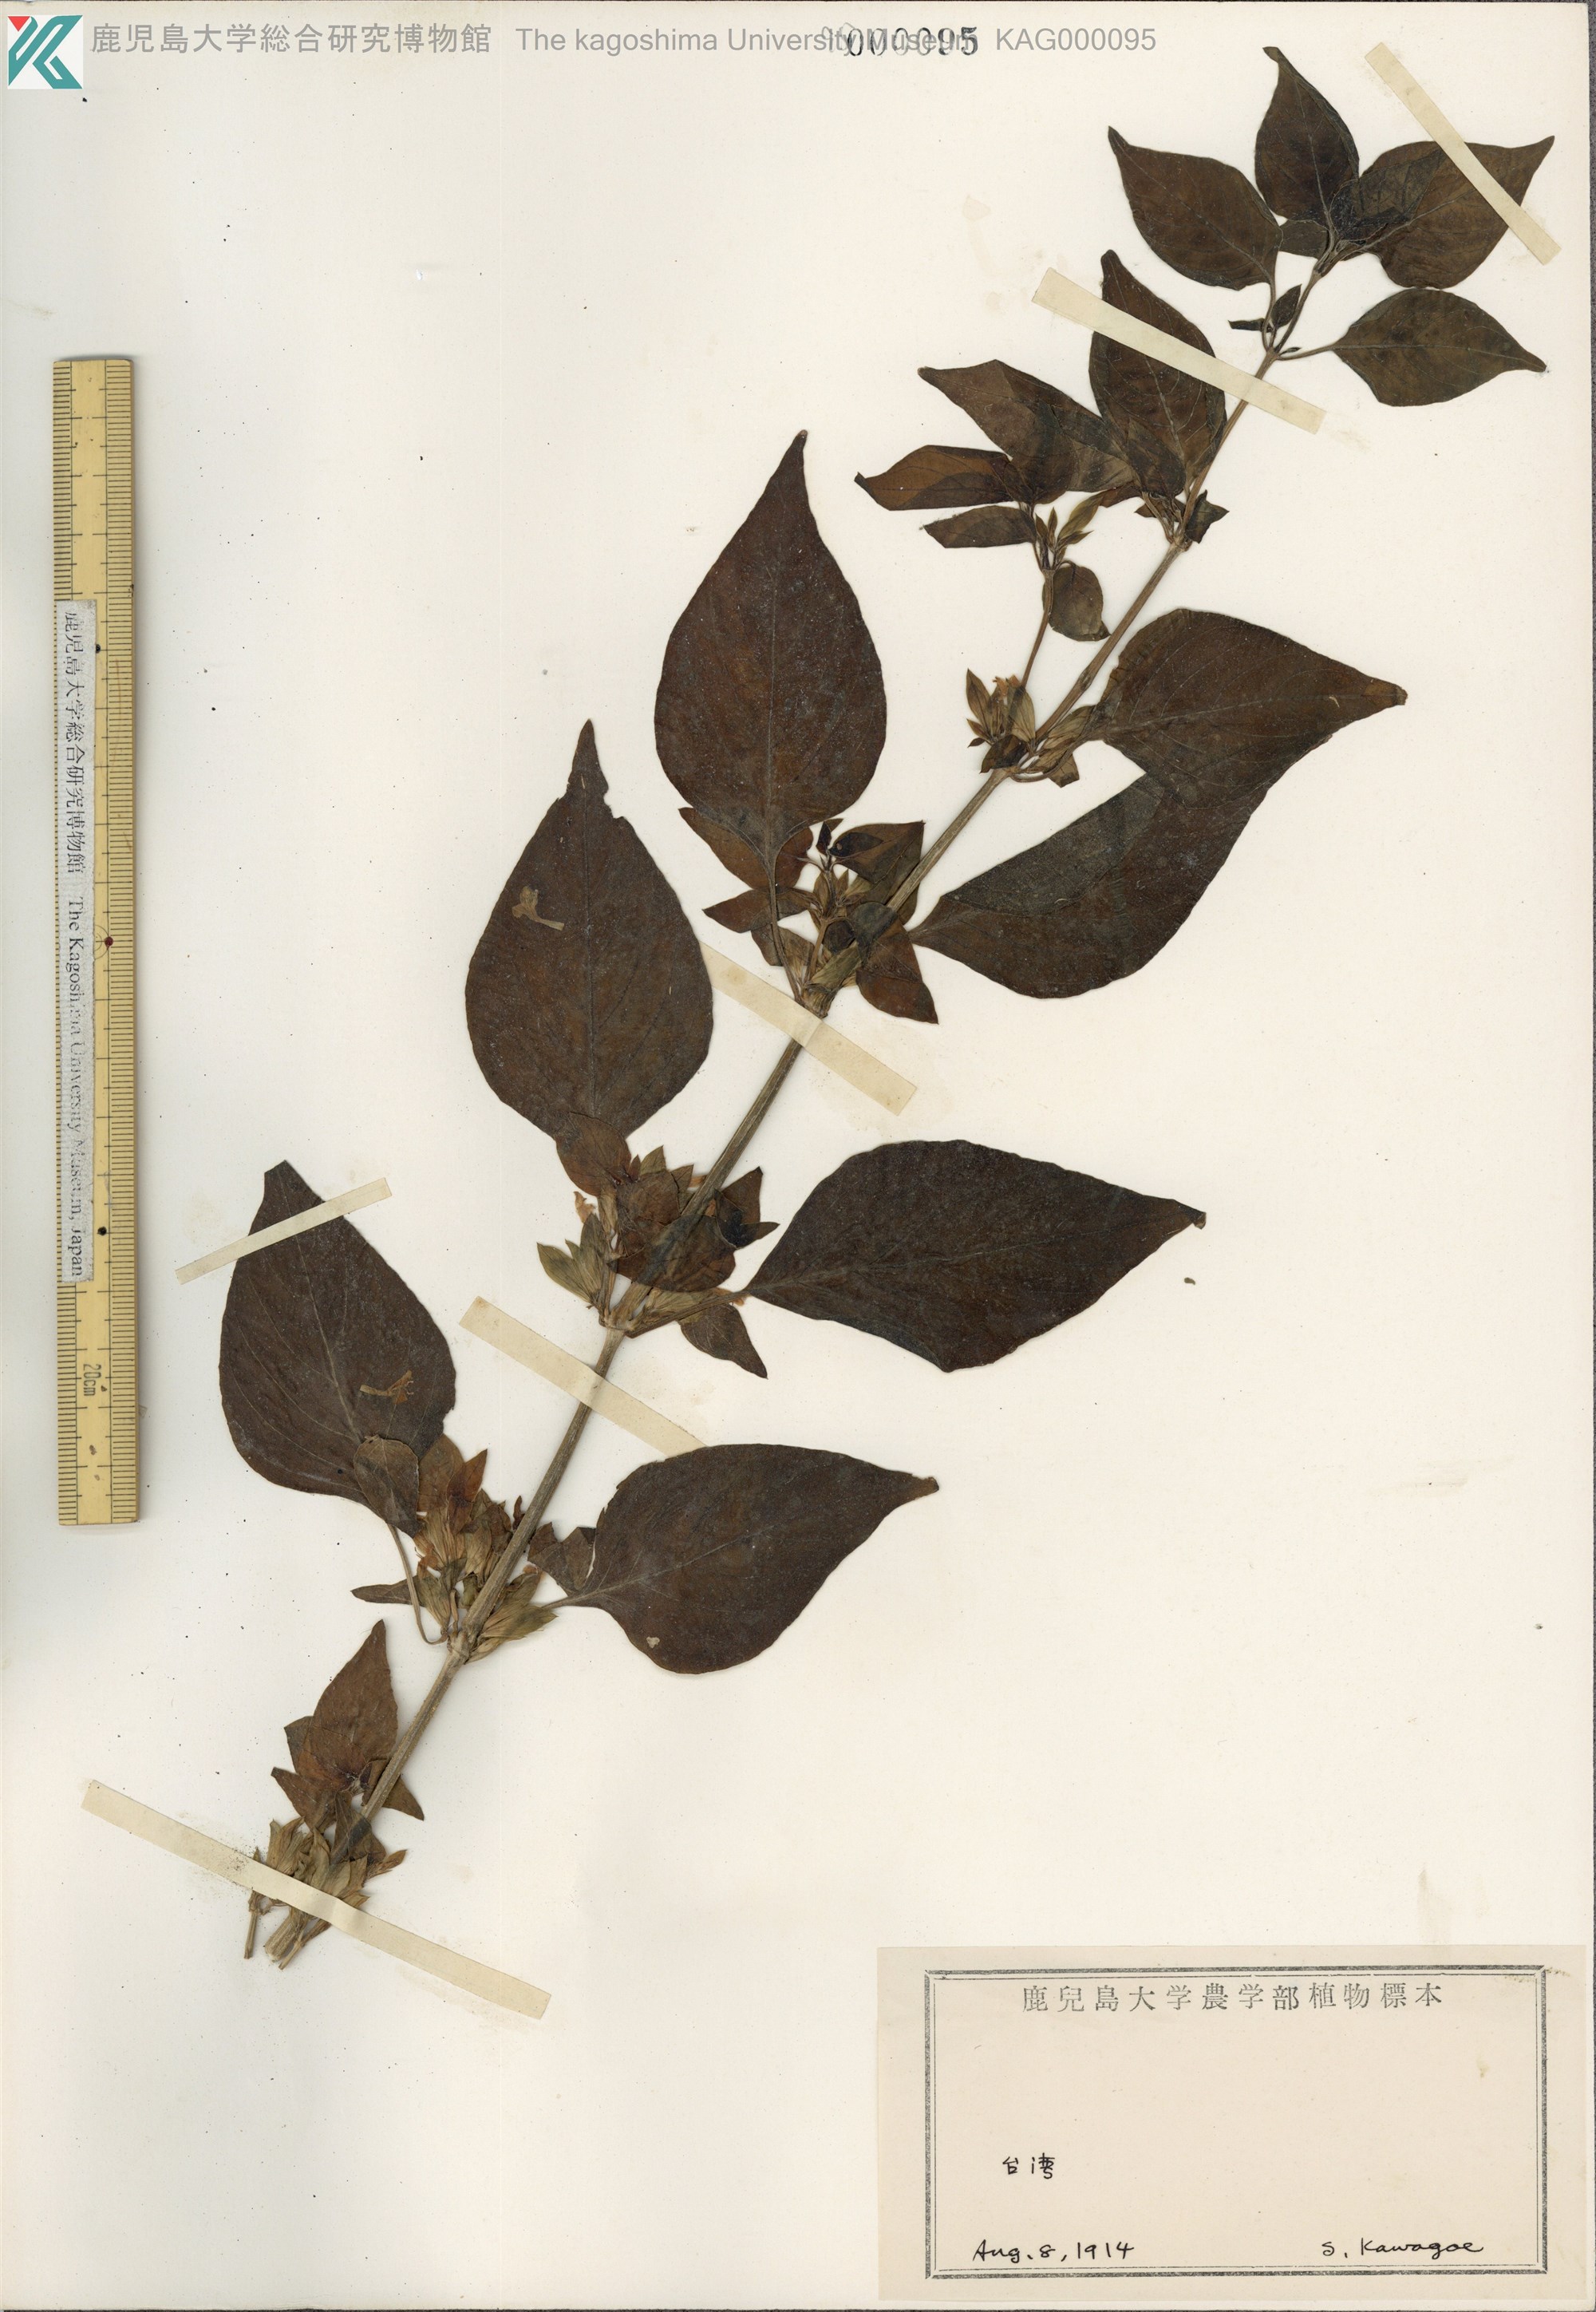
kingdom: Plantae
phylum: Tracheophyta
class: Magnoliopsida
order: Lamiales
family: Acanthaceae
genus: Dicliptera
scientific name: Dicliptera chinensis
